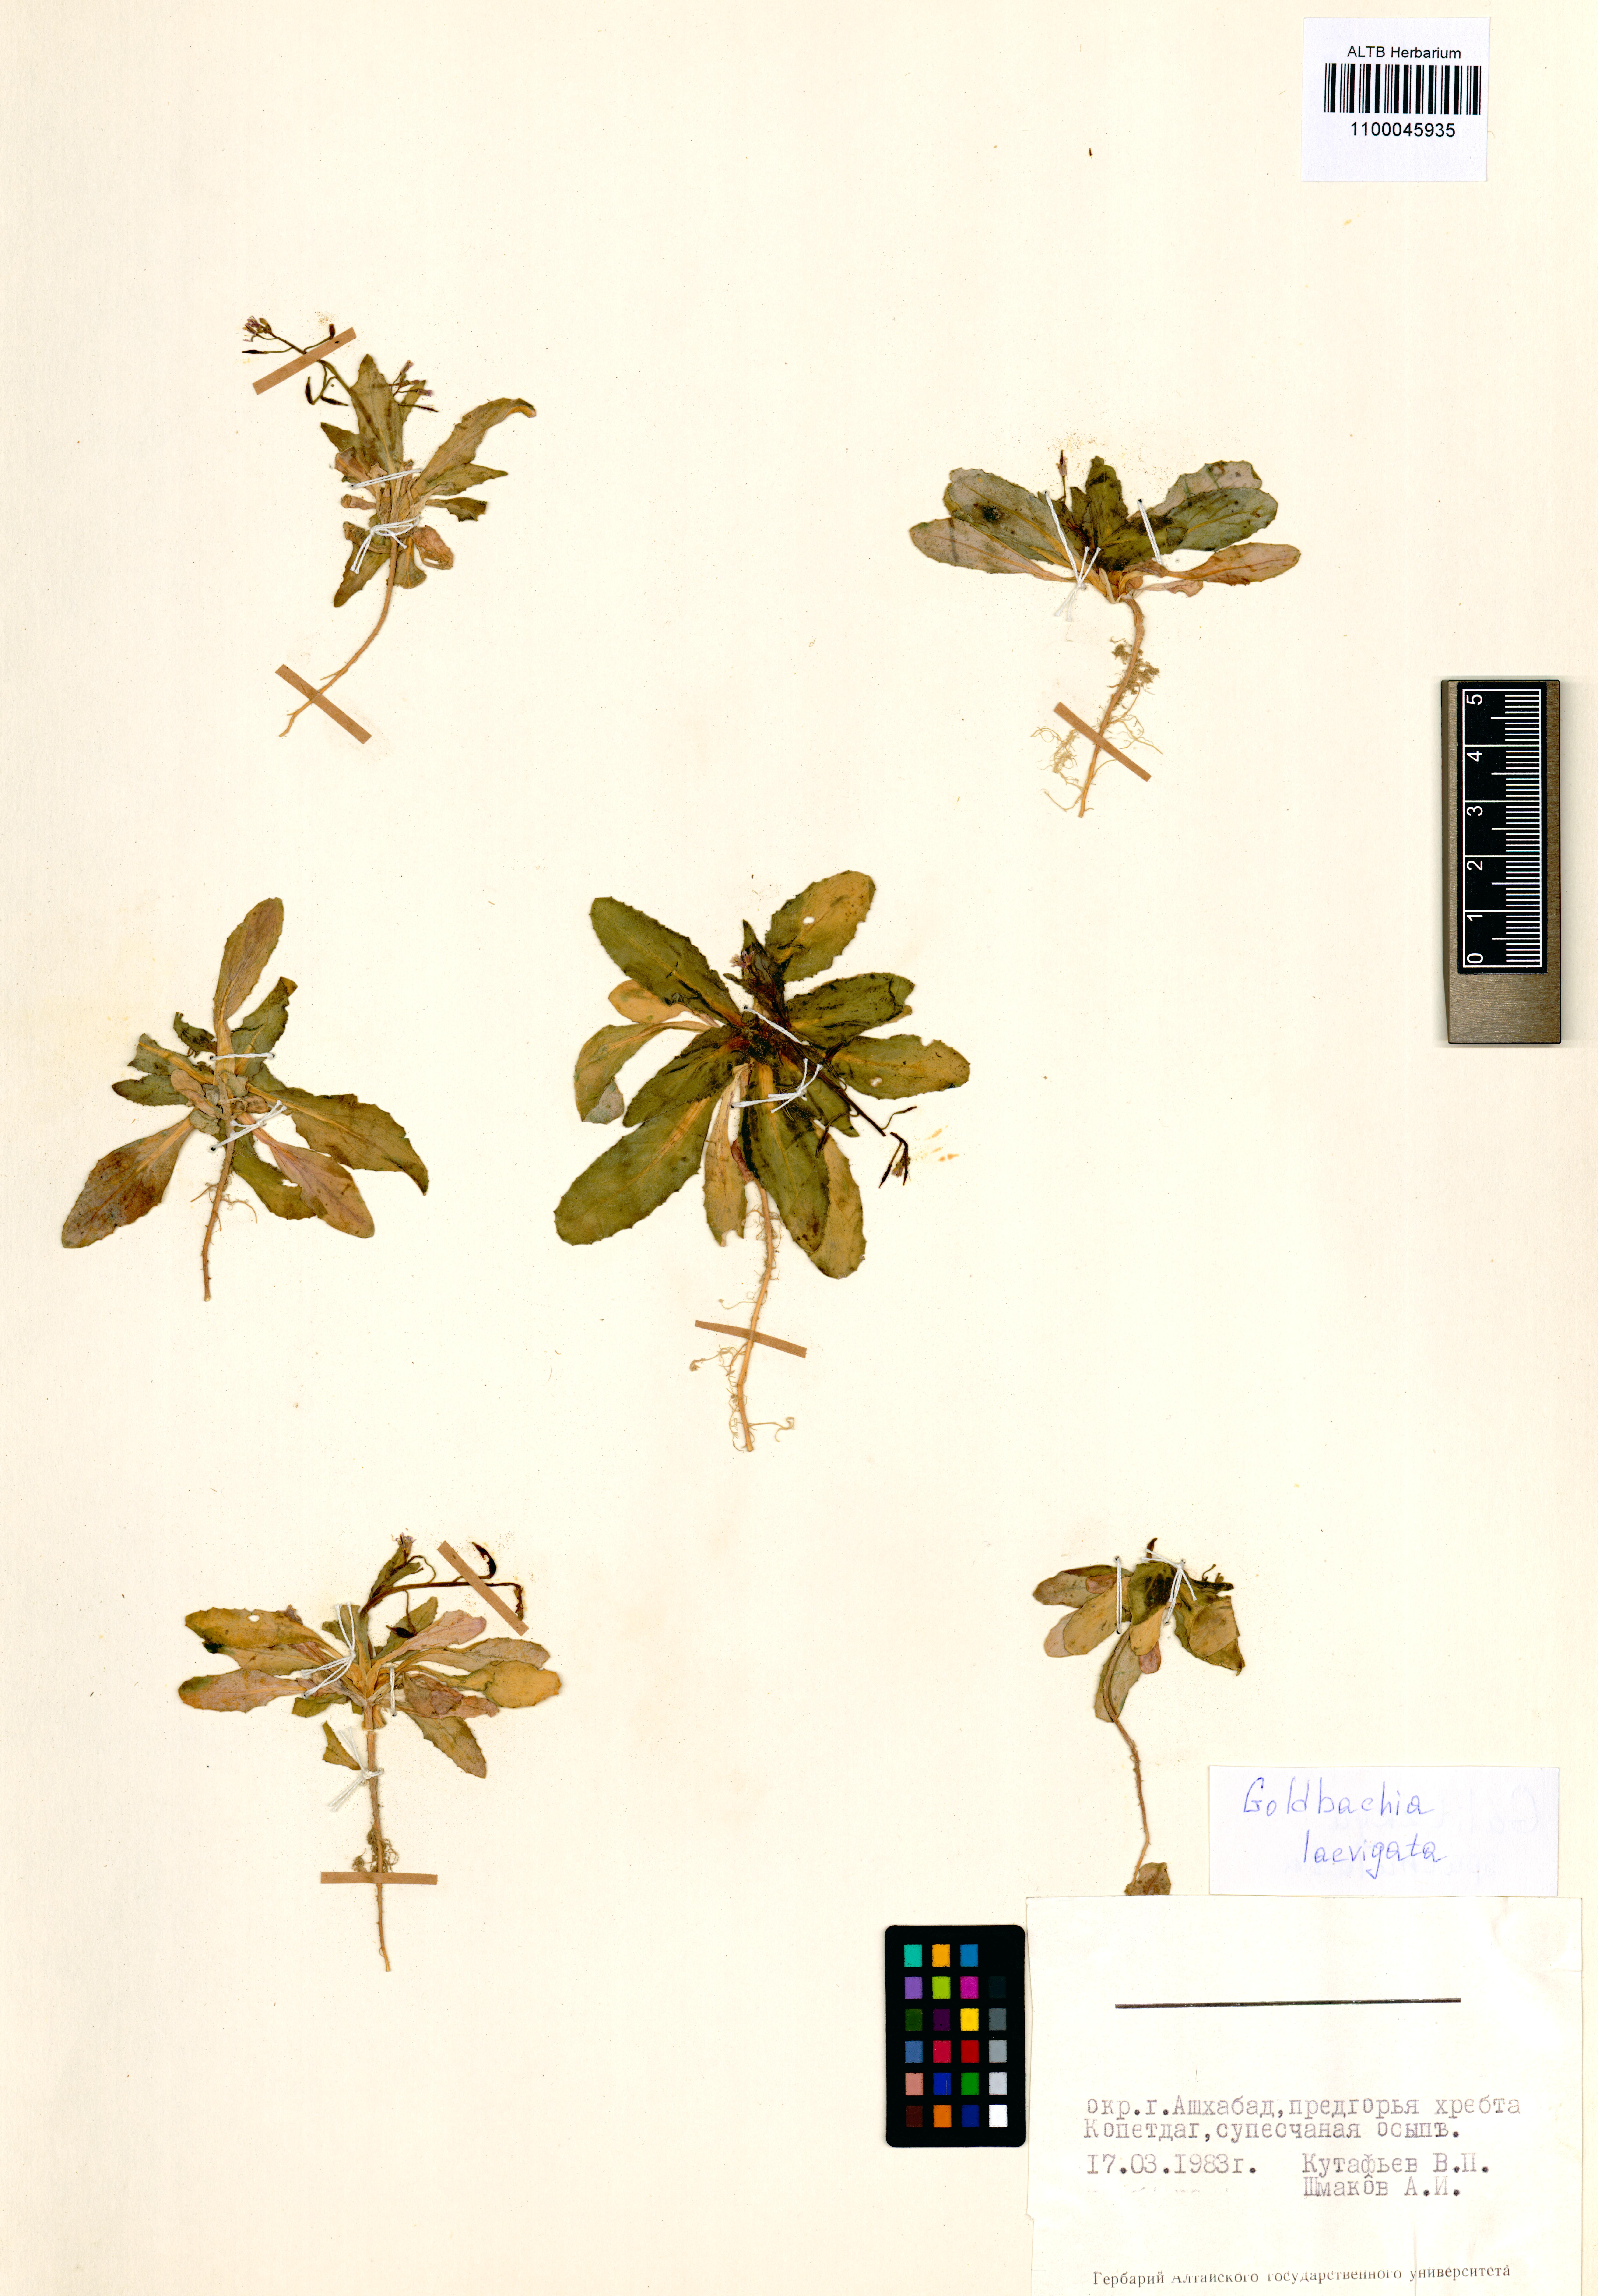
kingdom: Plantae
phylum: Tracheophyta
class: Magnoliopsida
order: Brassicales
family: Brassicaceae
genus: Goldbachia
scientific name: Goldbachia laevigata
